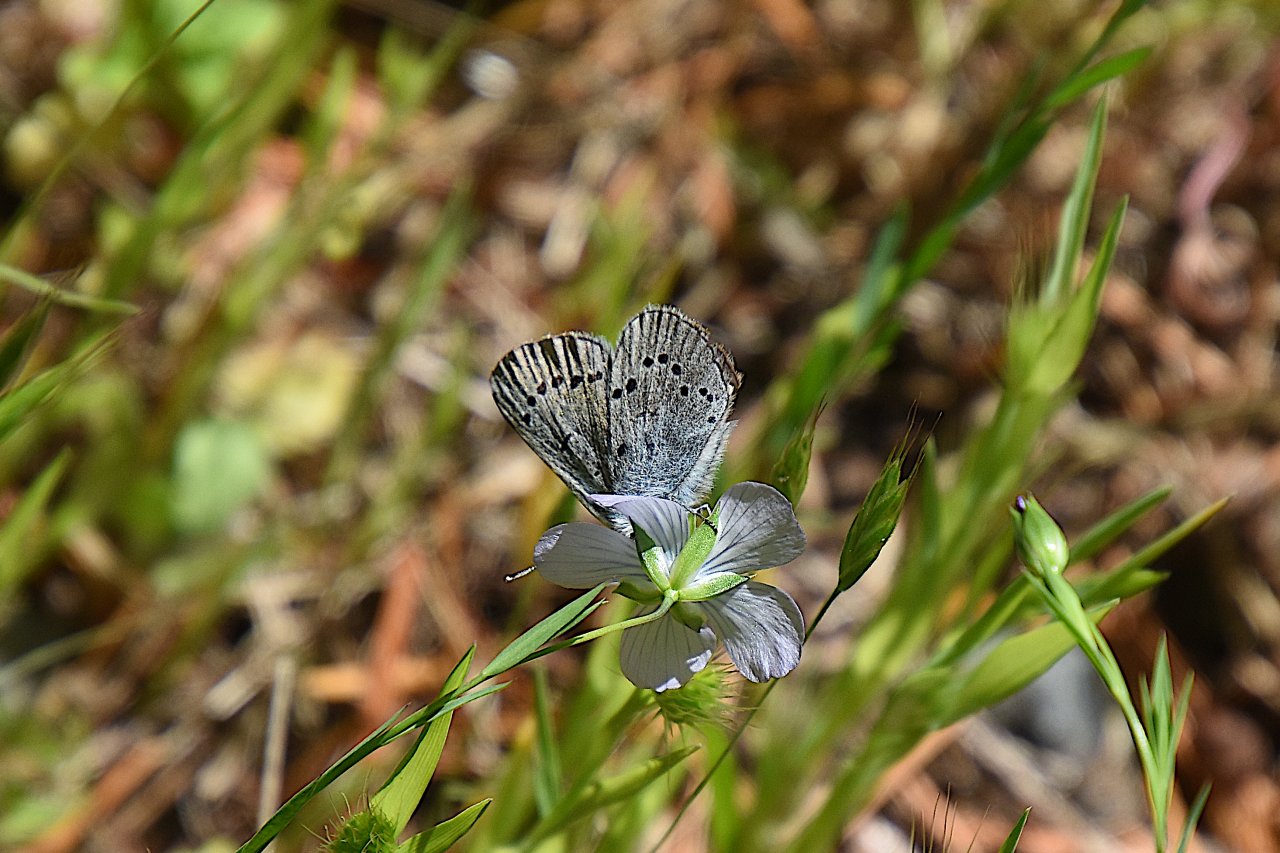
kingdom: Animalia
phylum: Arthropoda
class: Insecta
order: Lepidoptera
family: Lycaenidae
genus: Glaucopsyche
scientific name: Glaucopsyche lygdamus
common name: Silvery Blue
